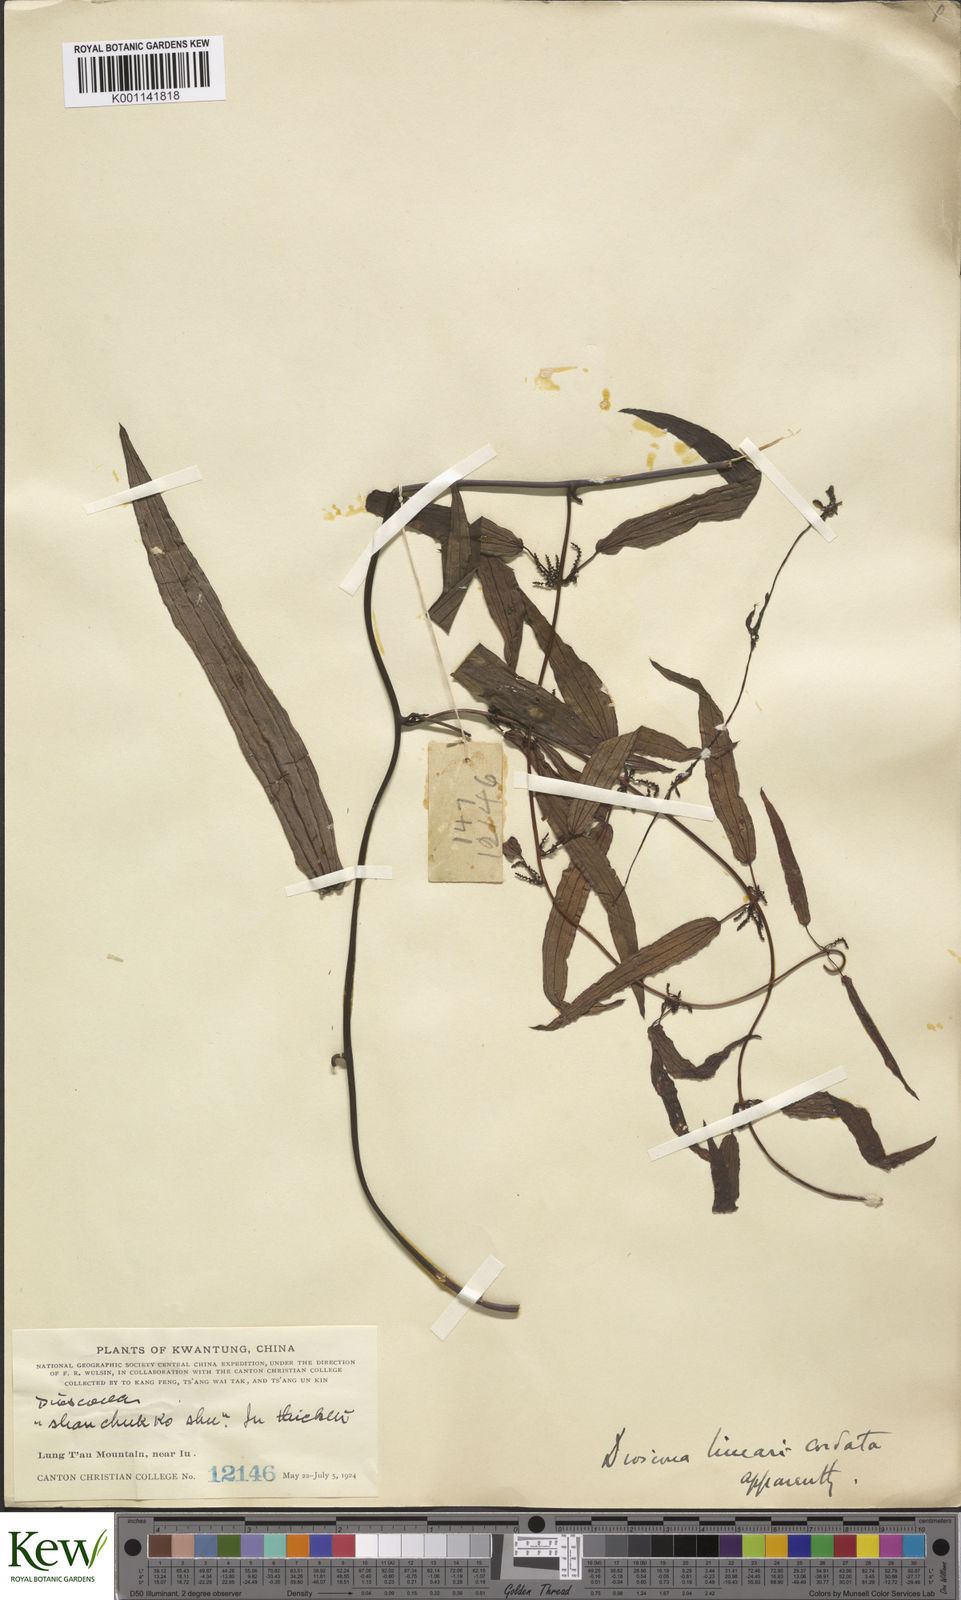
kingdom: Plantae
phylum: Tracheophyta
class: Liliopsida
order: Dioscoreales
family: Dioscoreaceae
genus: Dioscorea
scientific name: Dioscorea linearicordata
